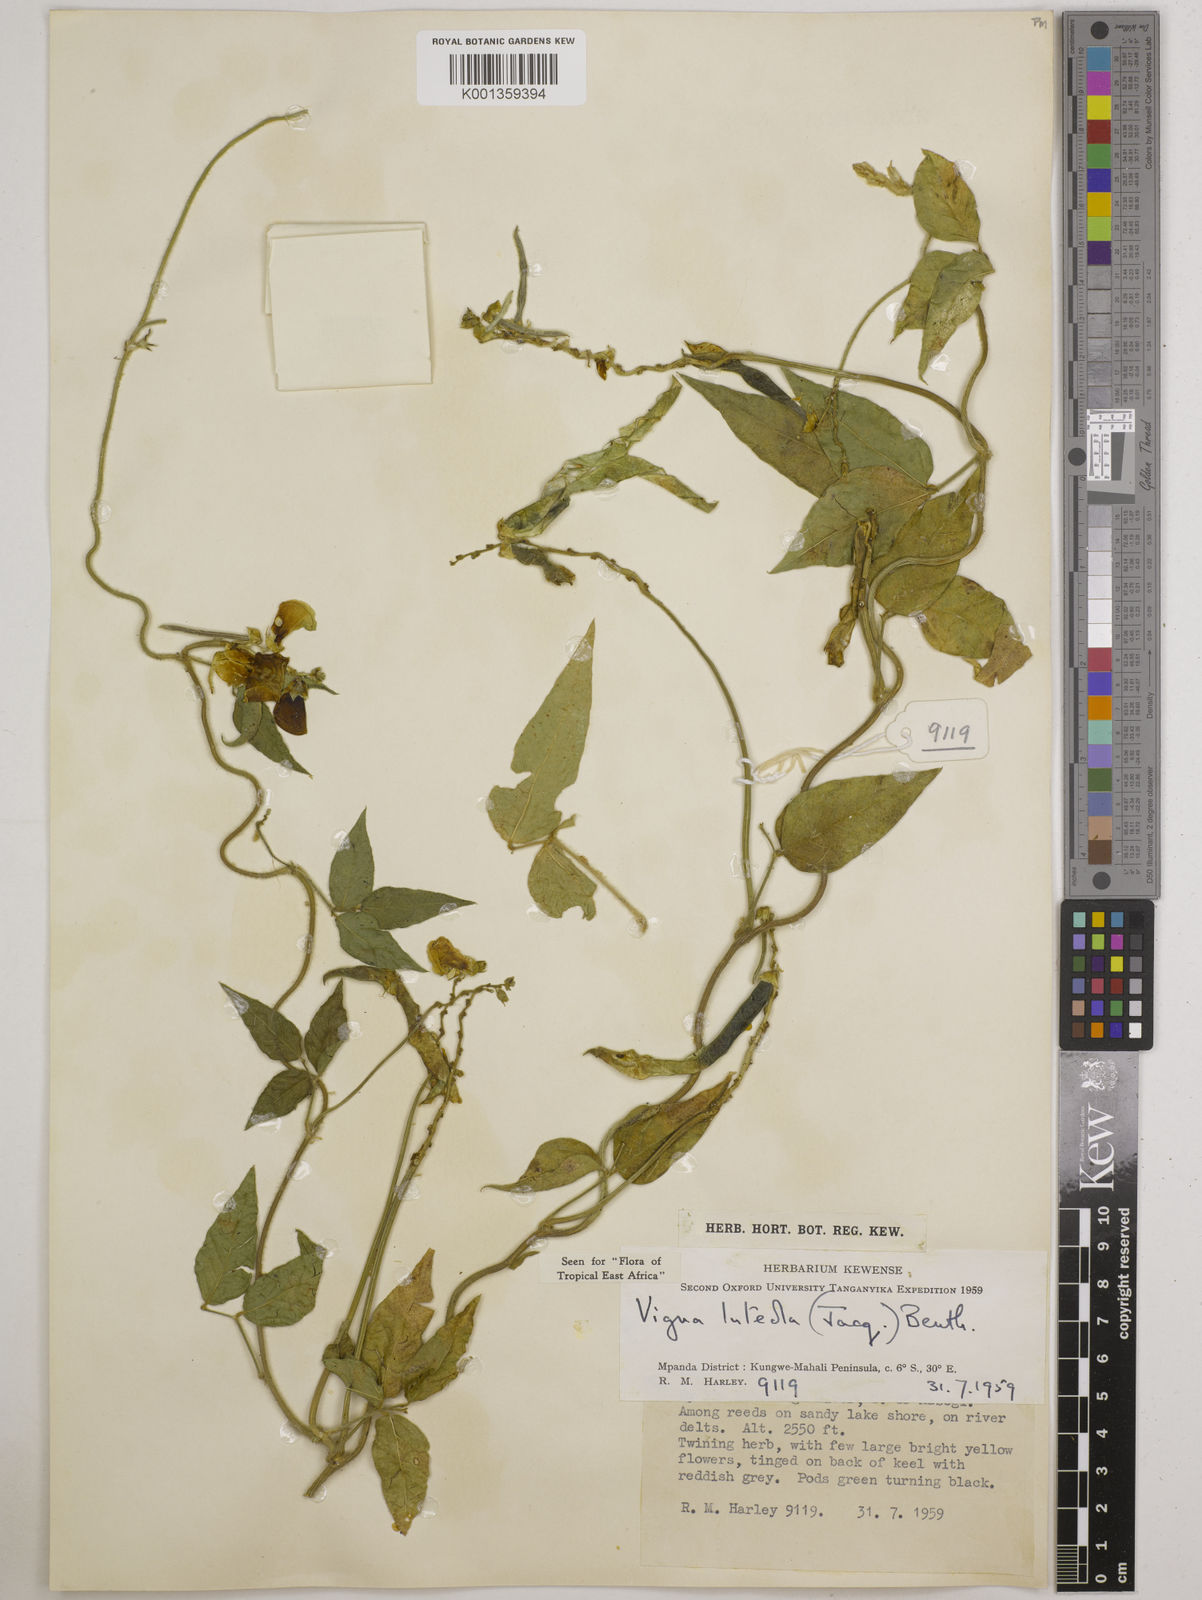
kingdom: Plantae
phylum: Tracheophyta
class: Magnoliopsida
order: Fabales
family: Fabaceae
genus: Vigna
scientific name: Vigna luteola
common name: Hairypod cowpea
